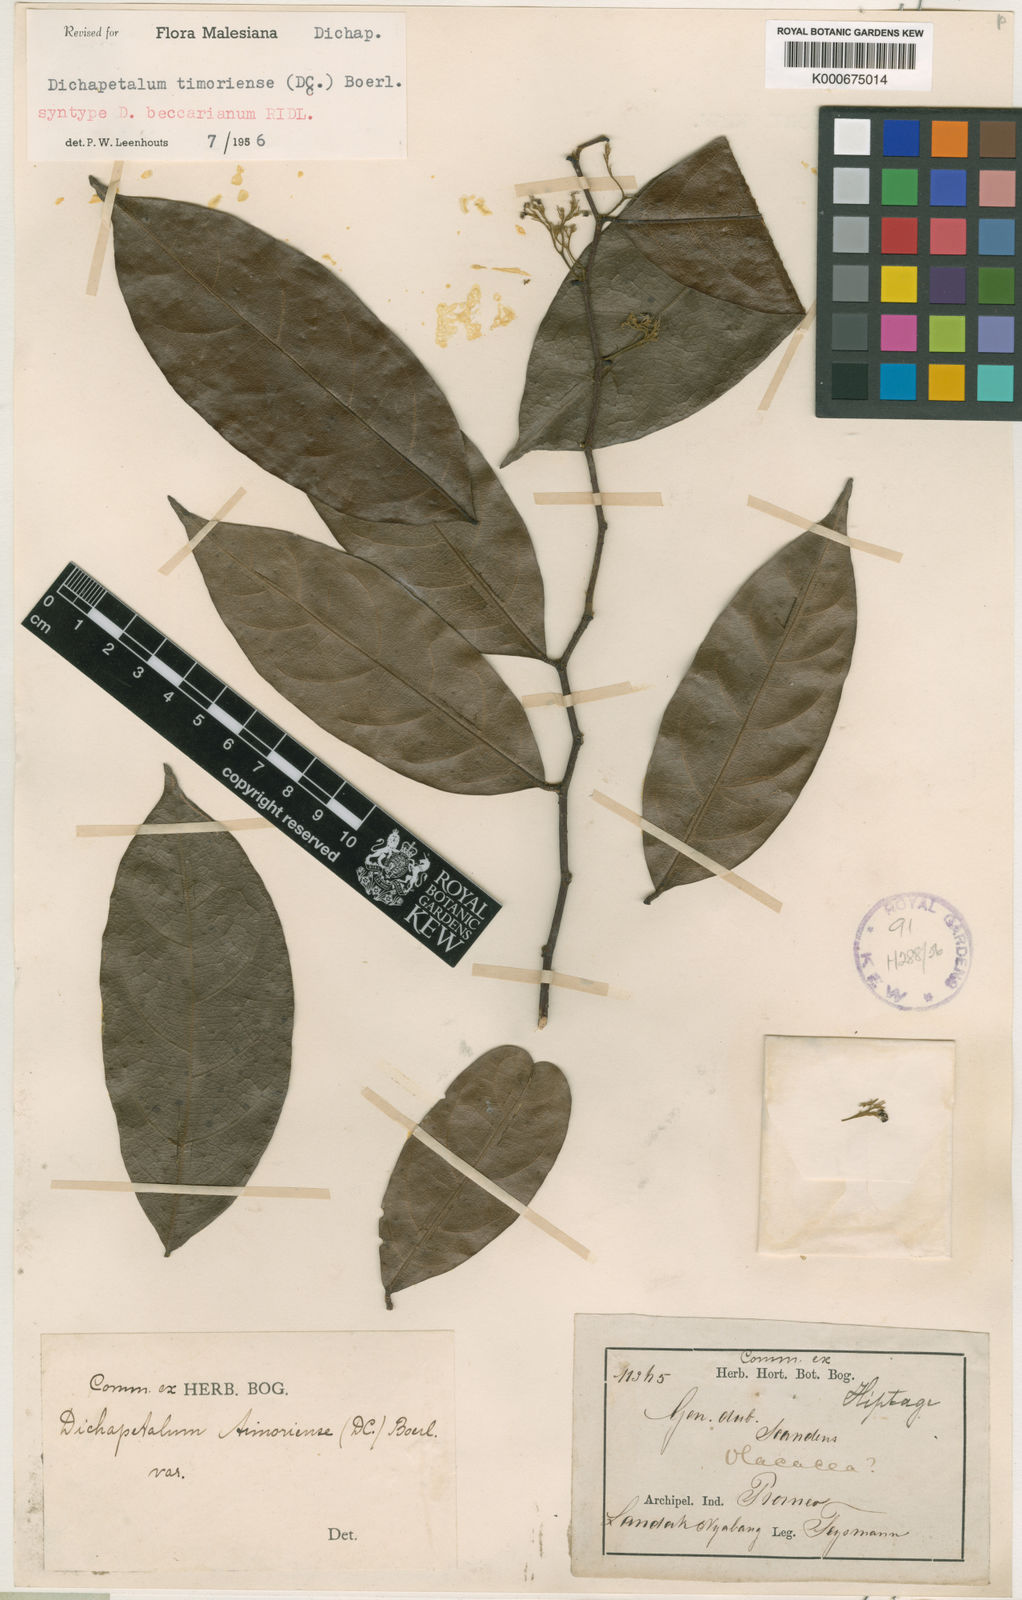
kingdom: Plantae
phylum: Tracheophyta
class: Magnoliopsida
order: Malpighiales
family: Dichapetalaceae
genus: Dichapetalum
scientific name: Dichapetalum timoriense
